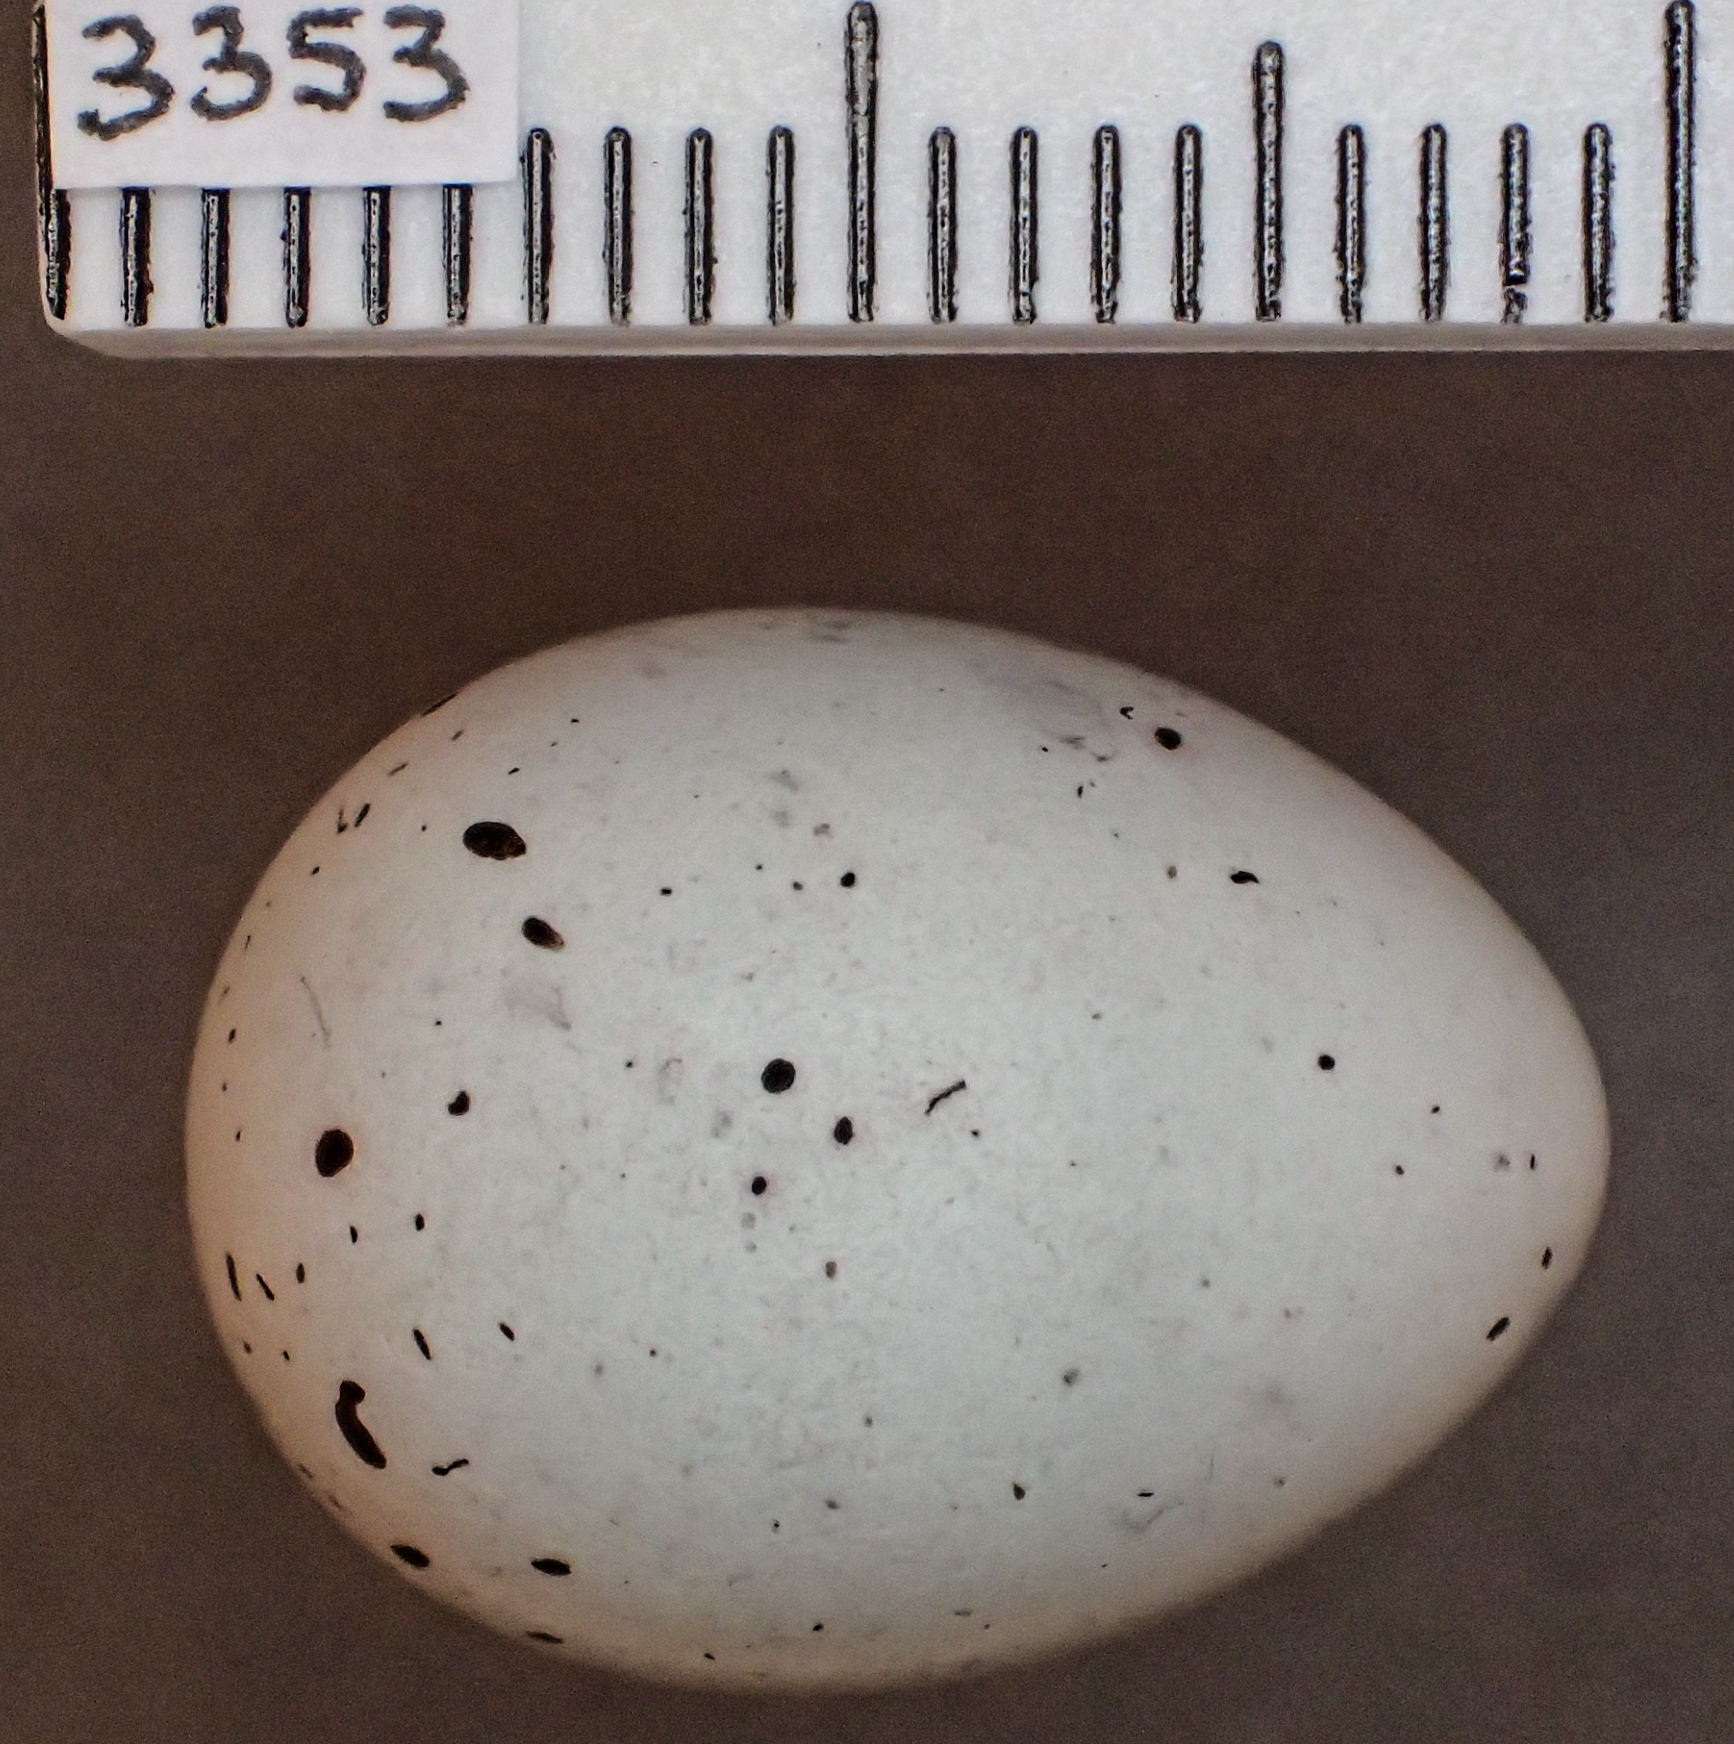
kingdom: Animalia
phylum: Chordata
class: Aves
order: Passeriformes
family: Fringillidae
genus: Pyrrhula
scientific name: Pyrrhula pyrrhula
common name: Eurasian bullfinch
